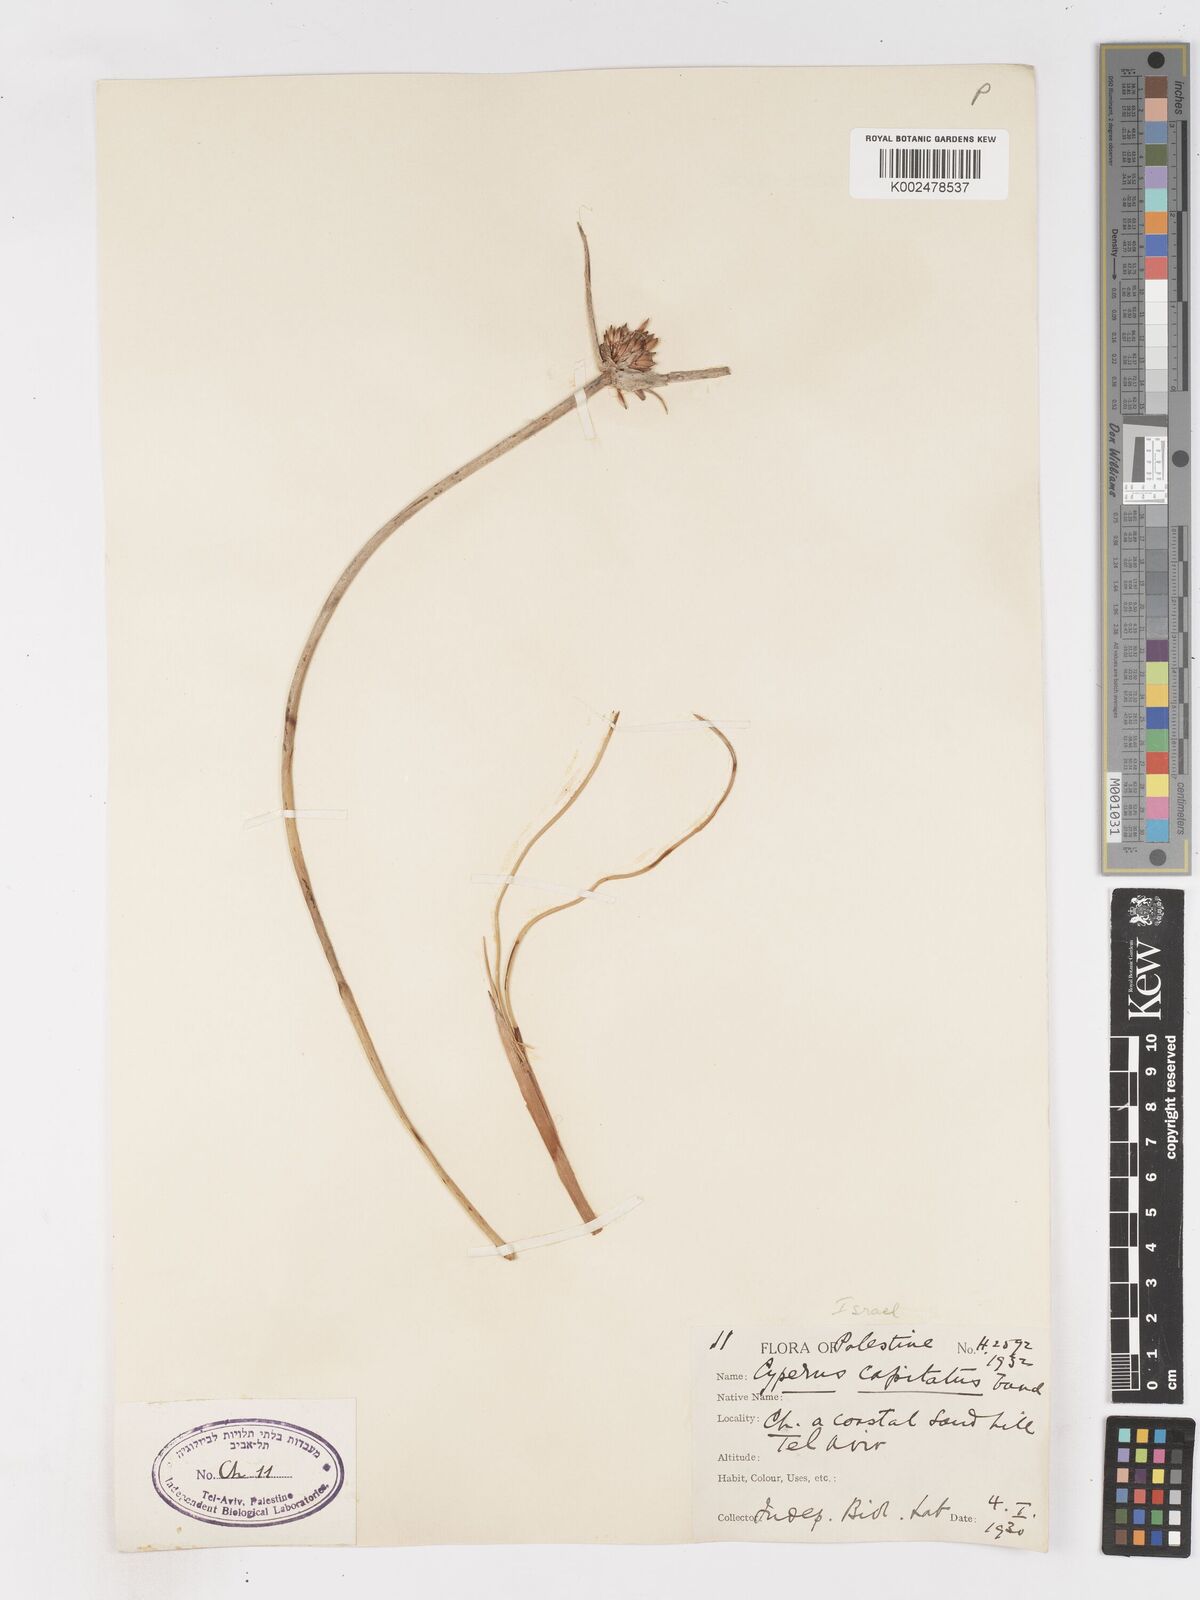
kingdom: Plantae
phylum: Tracheophyta
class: Liliopsida
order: Poales
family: Cyperaceae
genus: Cyperus
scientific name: Cyperus capitatus
